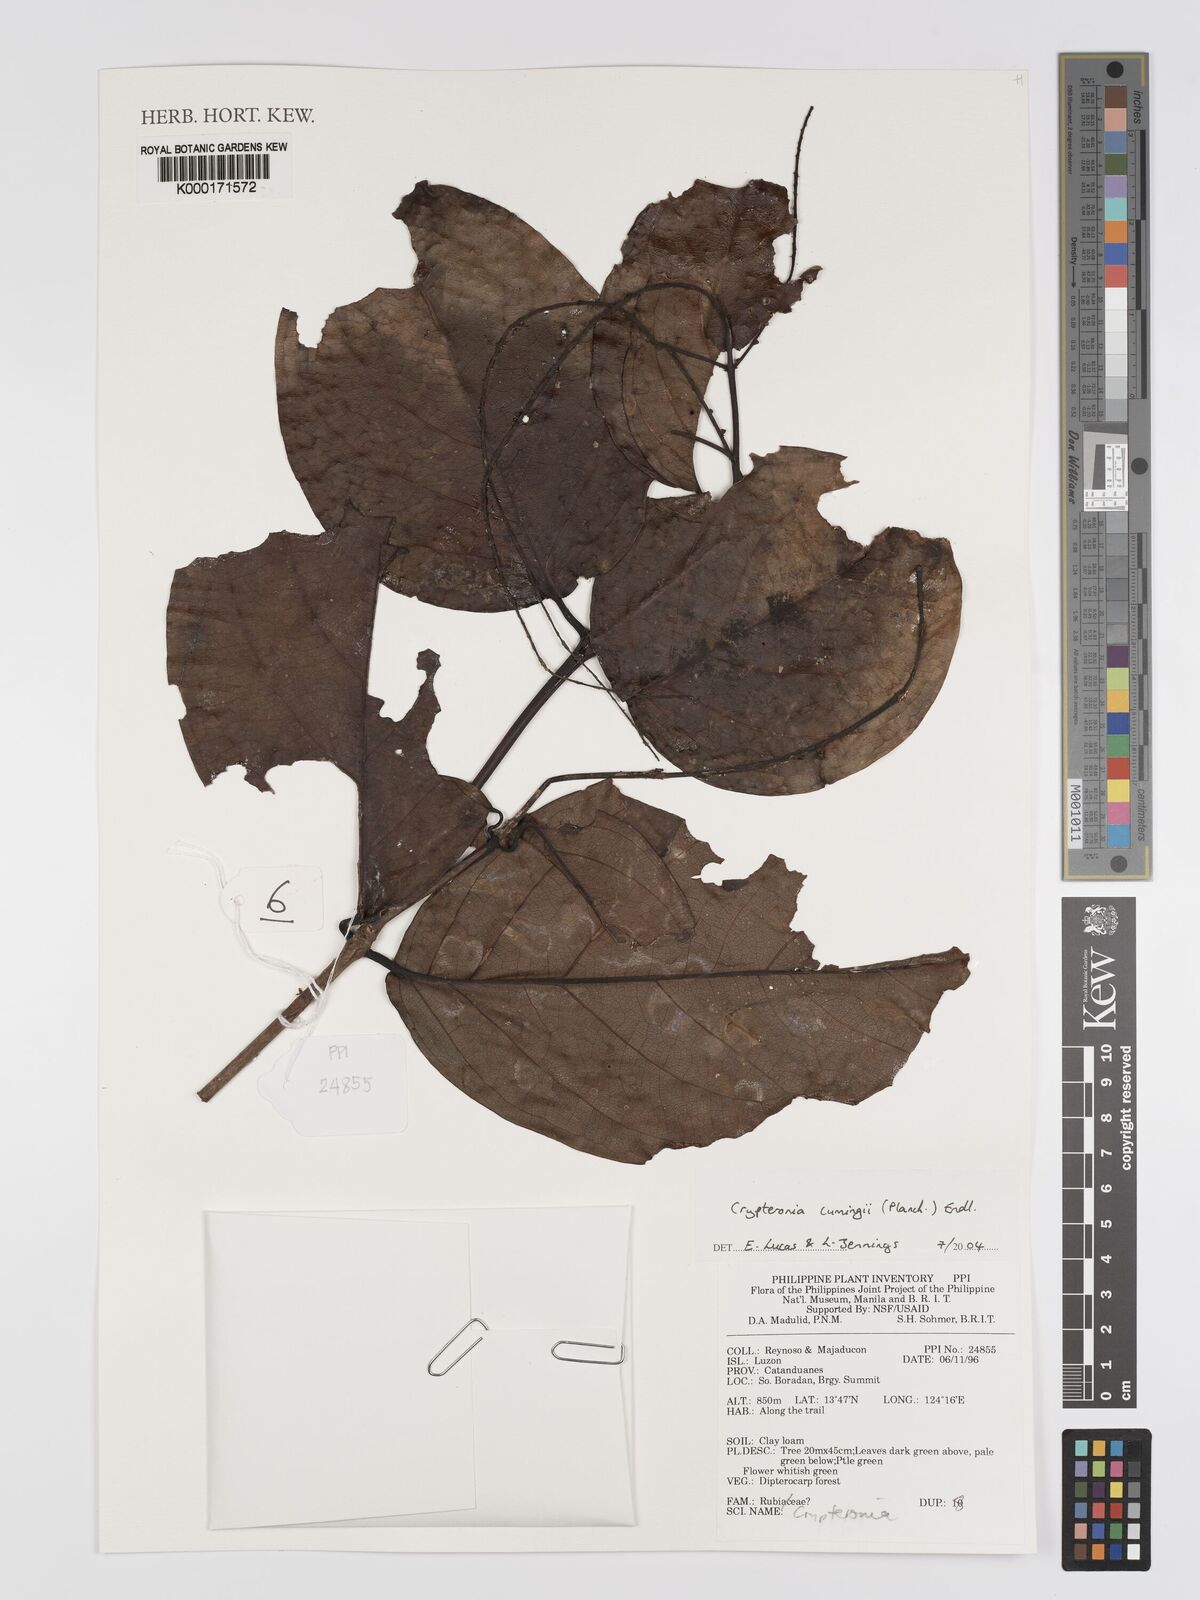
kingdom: Plantae
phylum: Tracheophyta
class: Magnoliopsida
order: Myrtales
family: Crypteroniaceae
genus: Crypteronia
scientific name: Crypteronia cumingii
